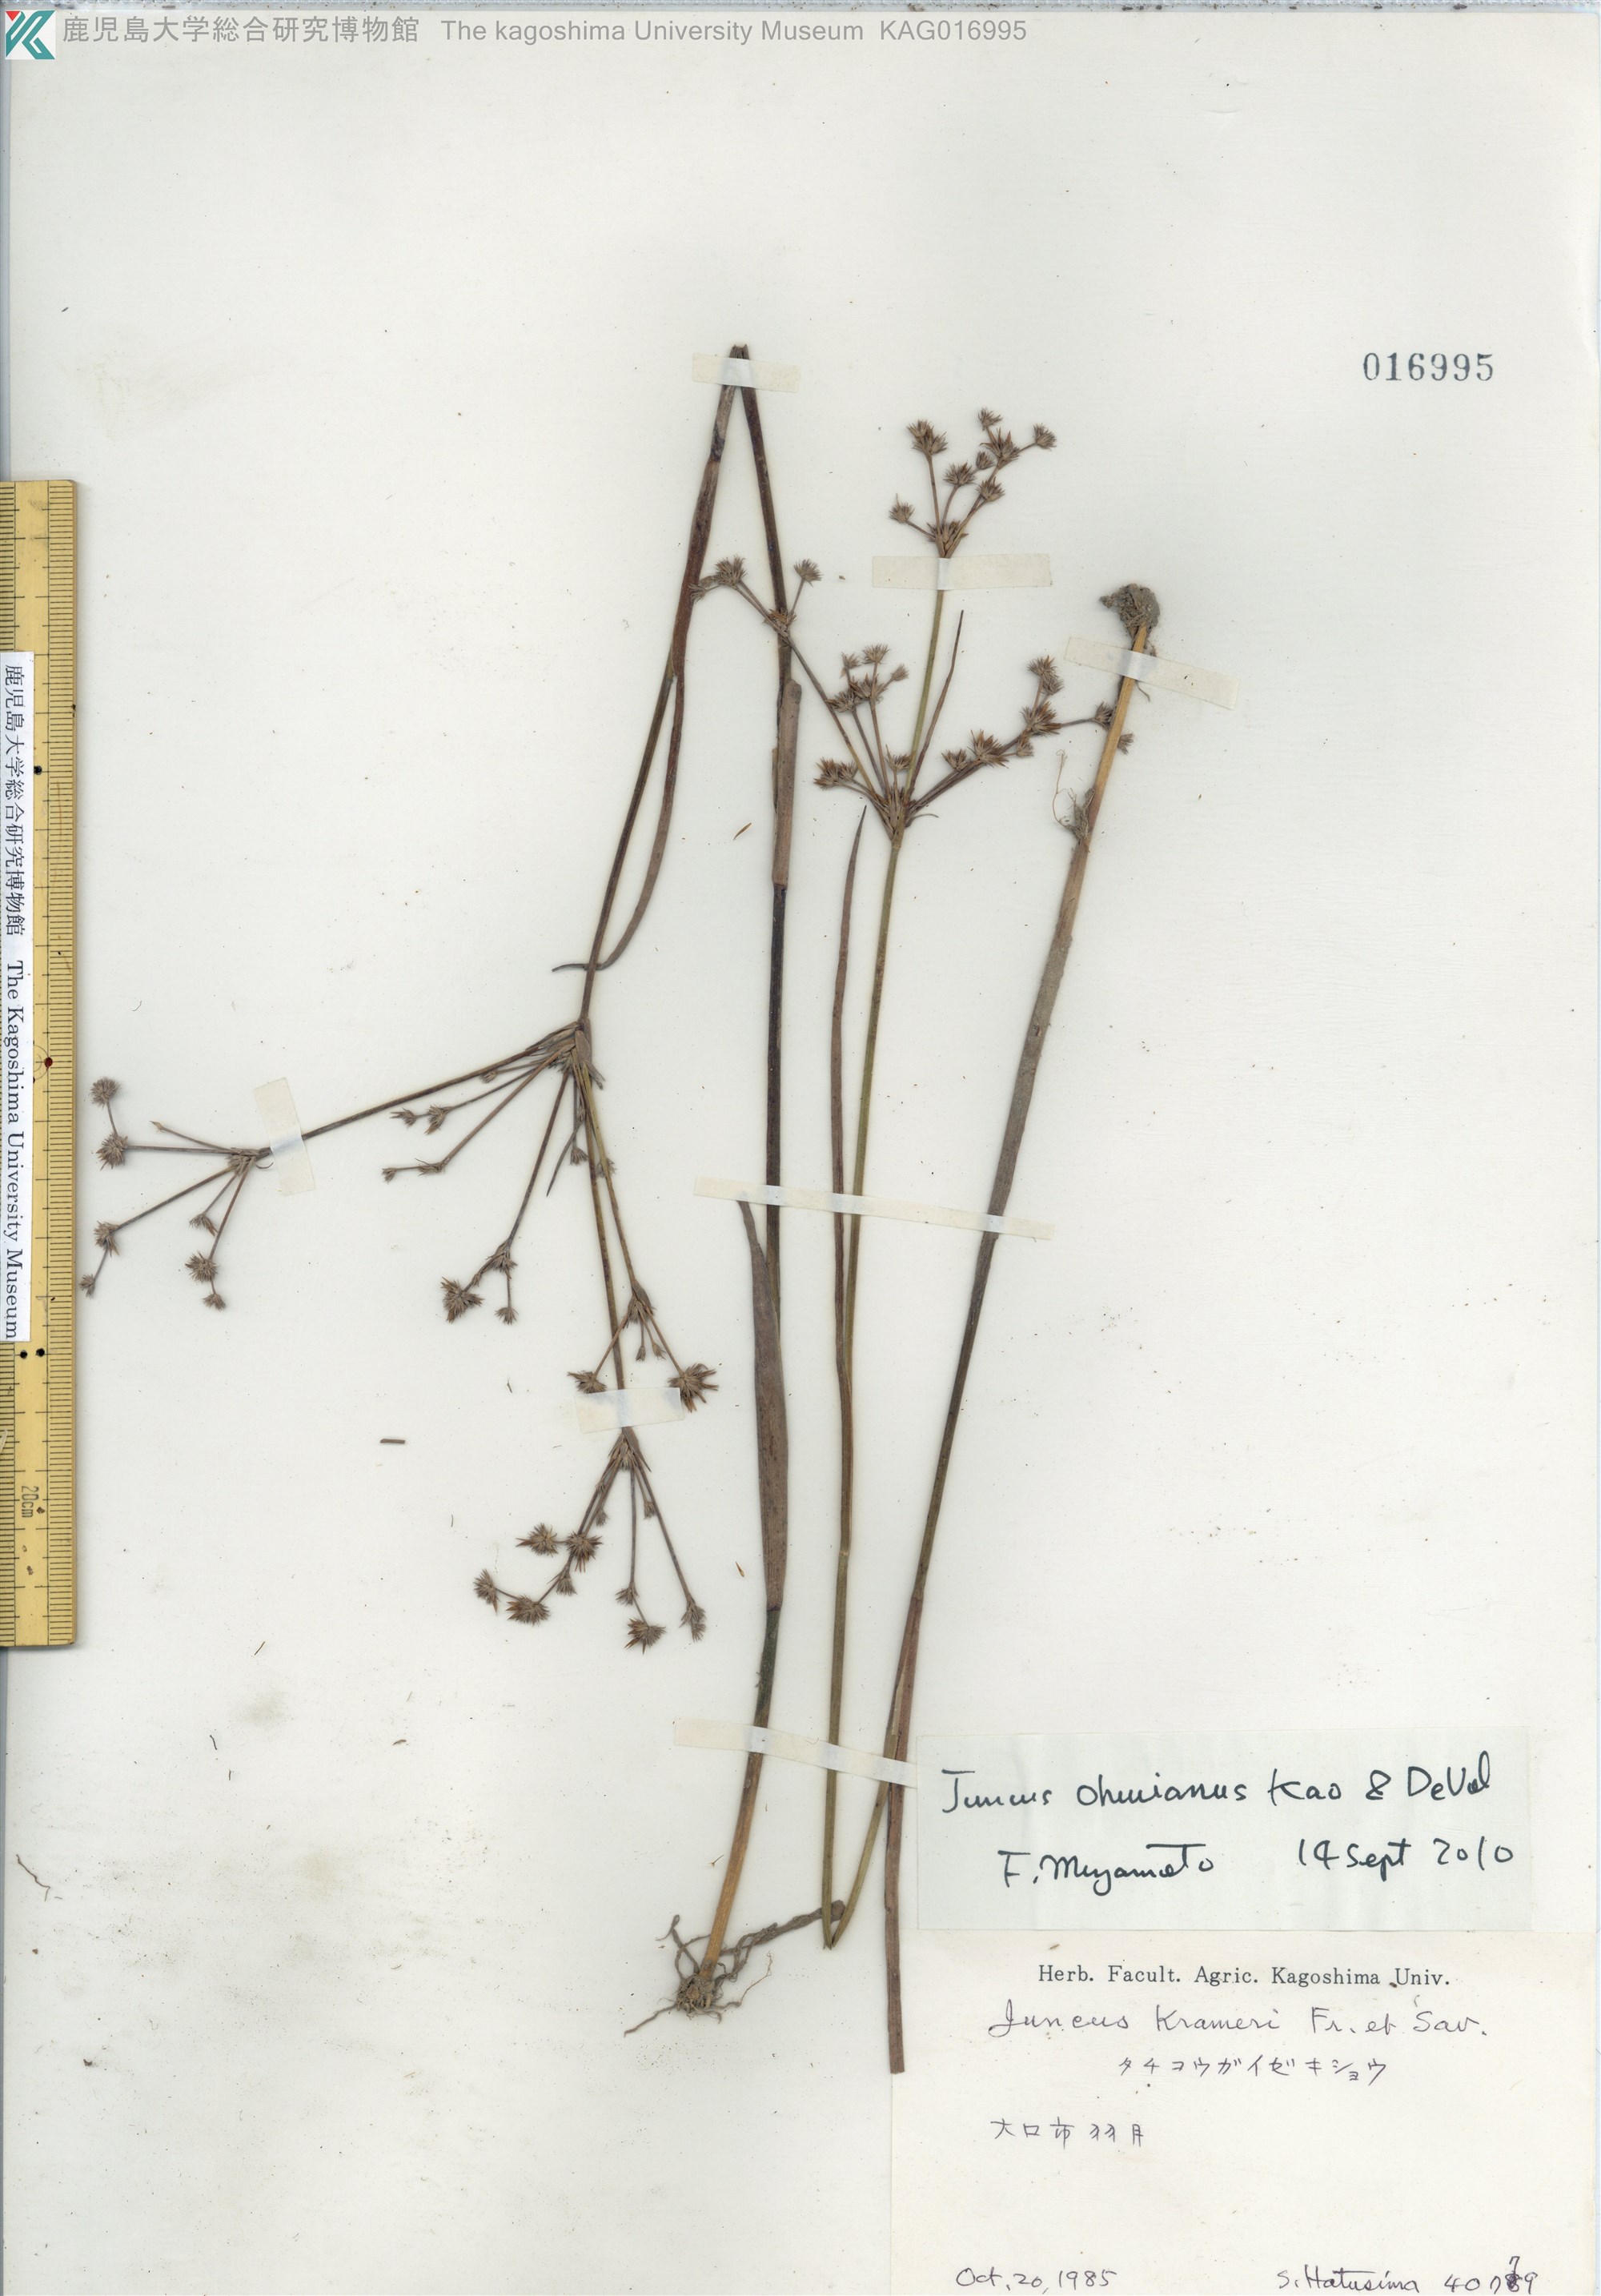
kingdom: Plantae
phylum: Tracheophyta
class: Liliopsida
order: Poales
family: Juncaceae
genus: Juncus
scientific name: Juncus wallichianus
